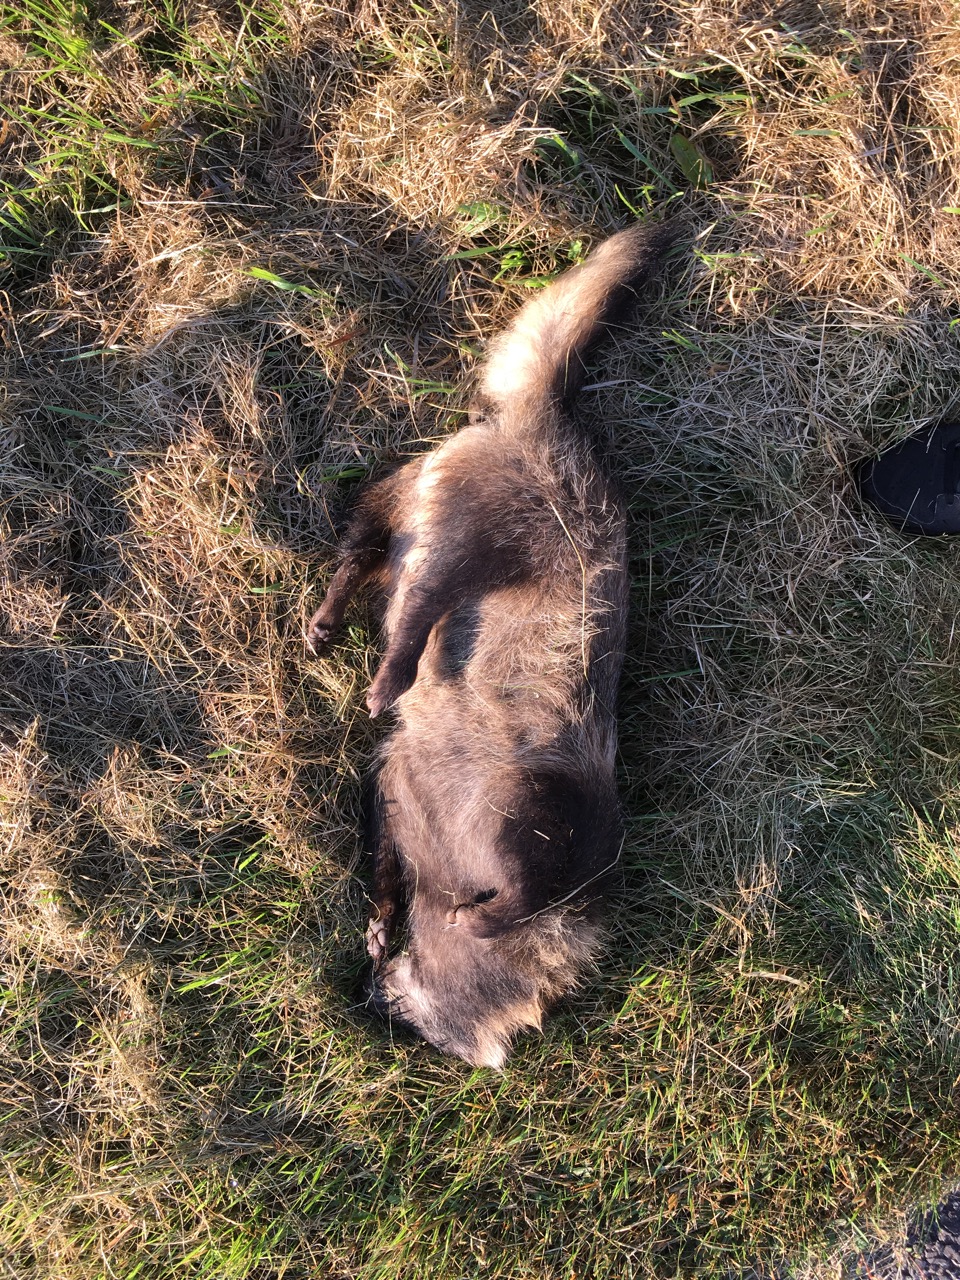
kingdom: Animalia
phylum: Chordata
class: Mammalia
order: Carnivora
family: Canidae
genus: Nyctereutes
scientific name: Nyctereutes procyonoides
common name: Raccoon dog
